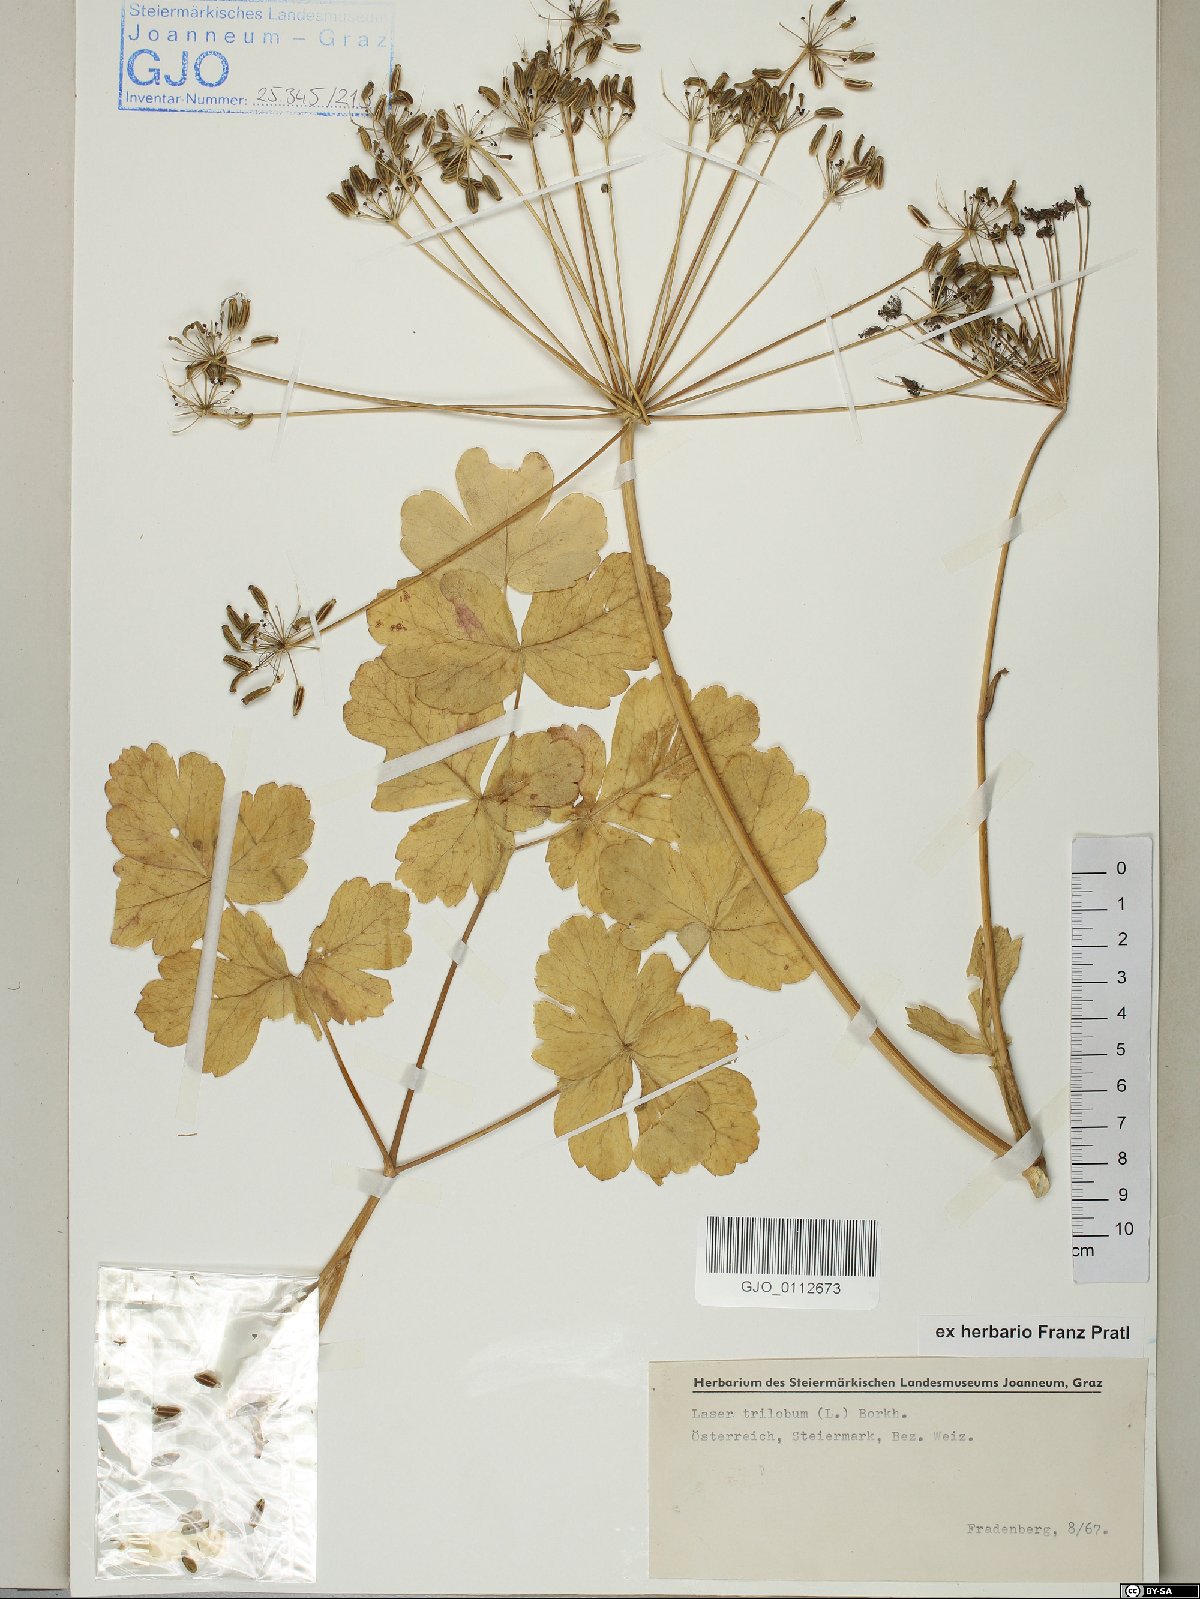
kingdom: Plantae
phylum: Tracheophyta
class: Magnoliopsida
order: Apiales
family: Apiaceae
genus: Laser
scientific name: Laser trilobum
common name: Laser
